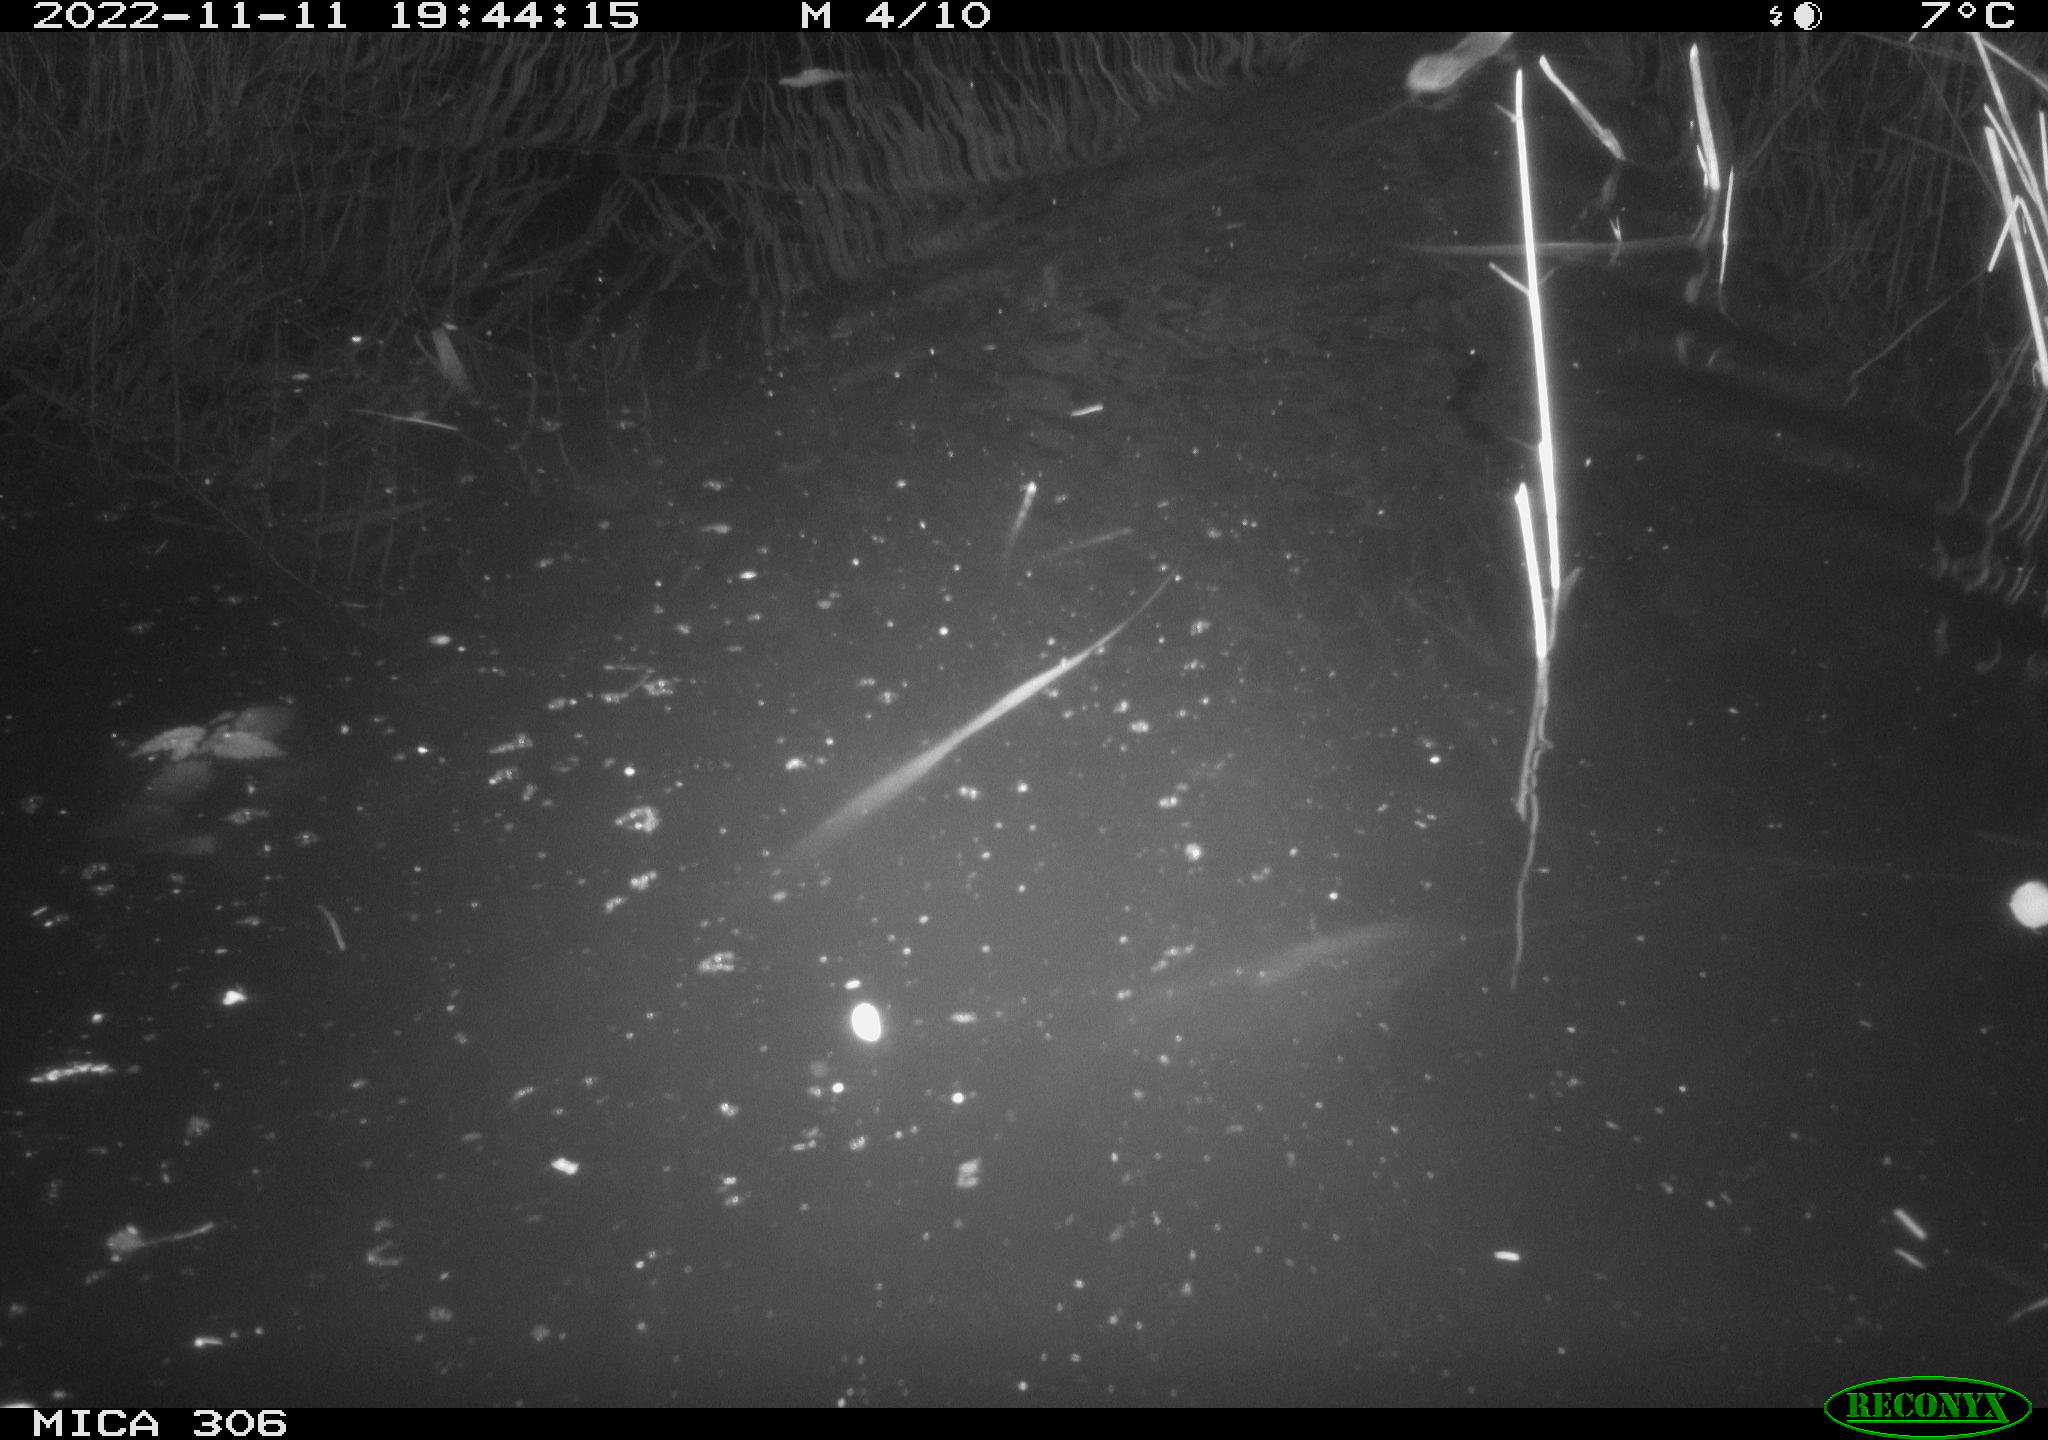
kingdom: Animalia
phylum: Chordata
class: Mammalia
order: Rodentia
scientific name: Rodentia
